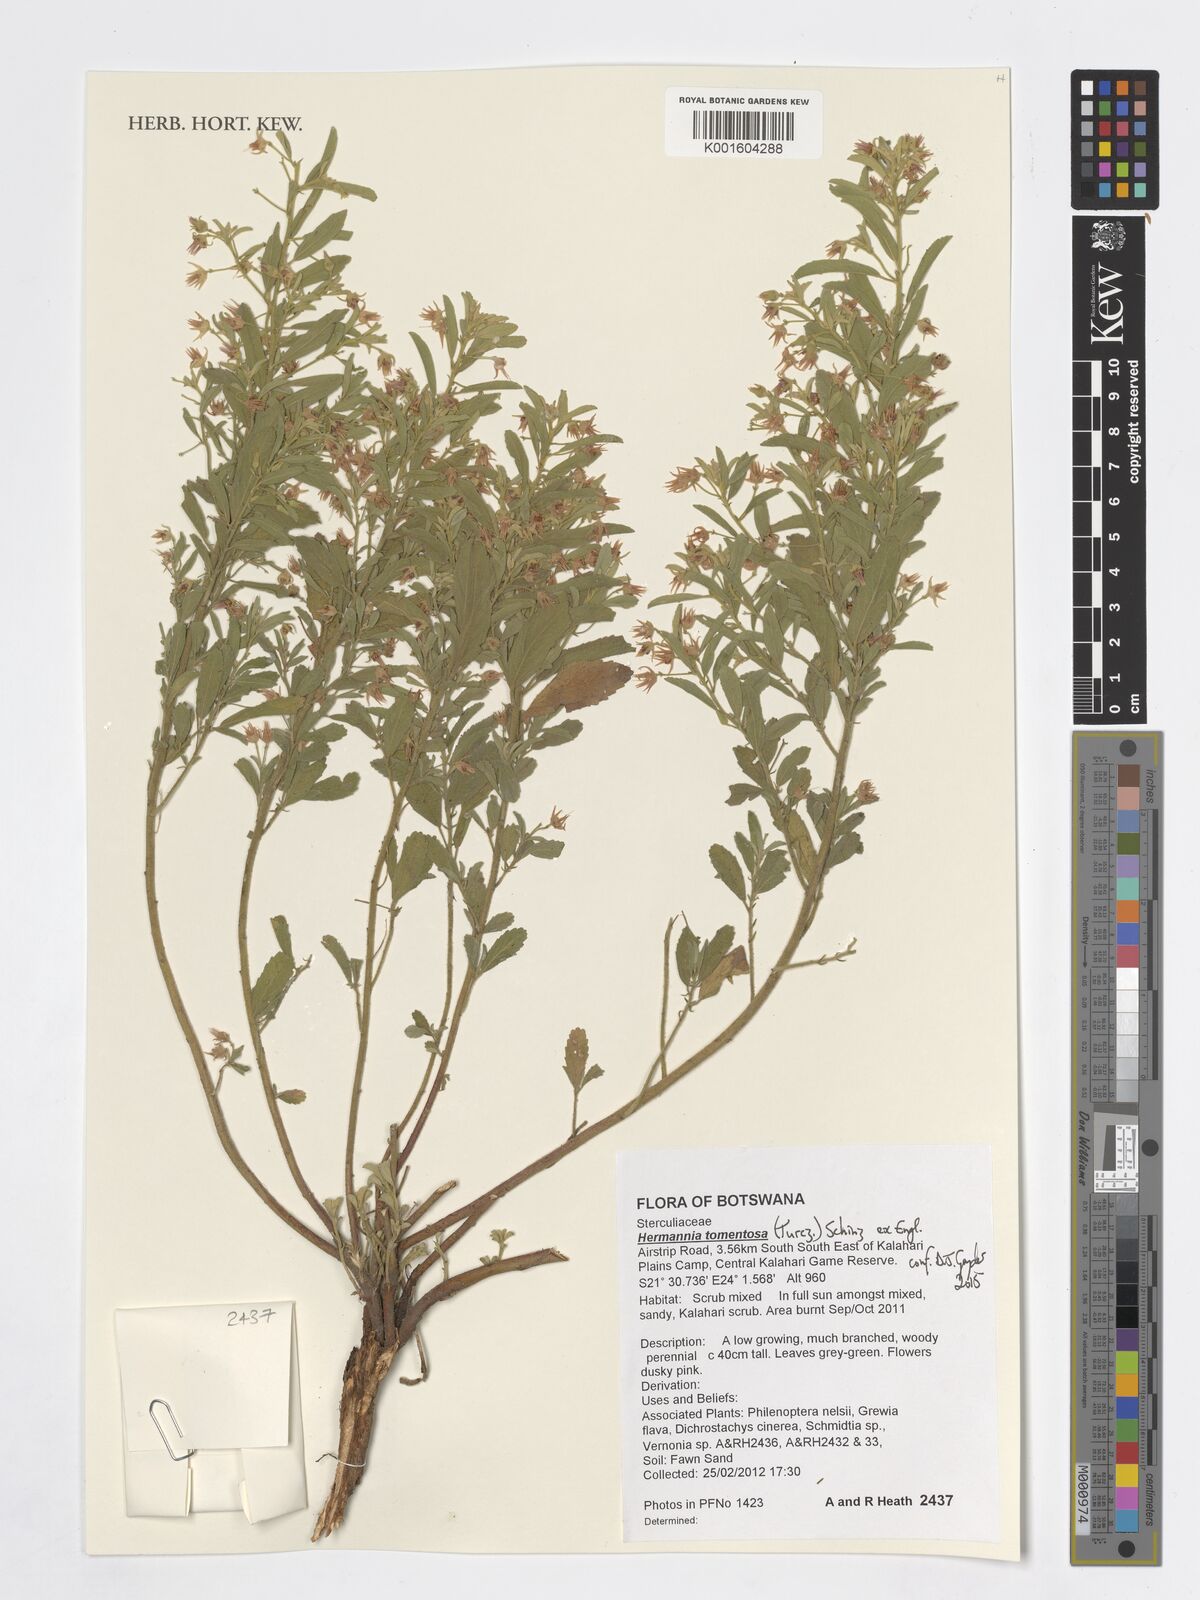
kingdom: Plantae
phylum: Tracheophyta
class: Magnoliopsida
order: Malvales
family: Malvaceae
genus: Hermannia
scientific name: Hermannia tomentosa
